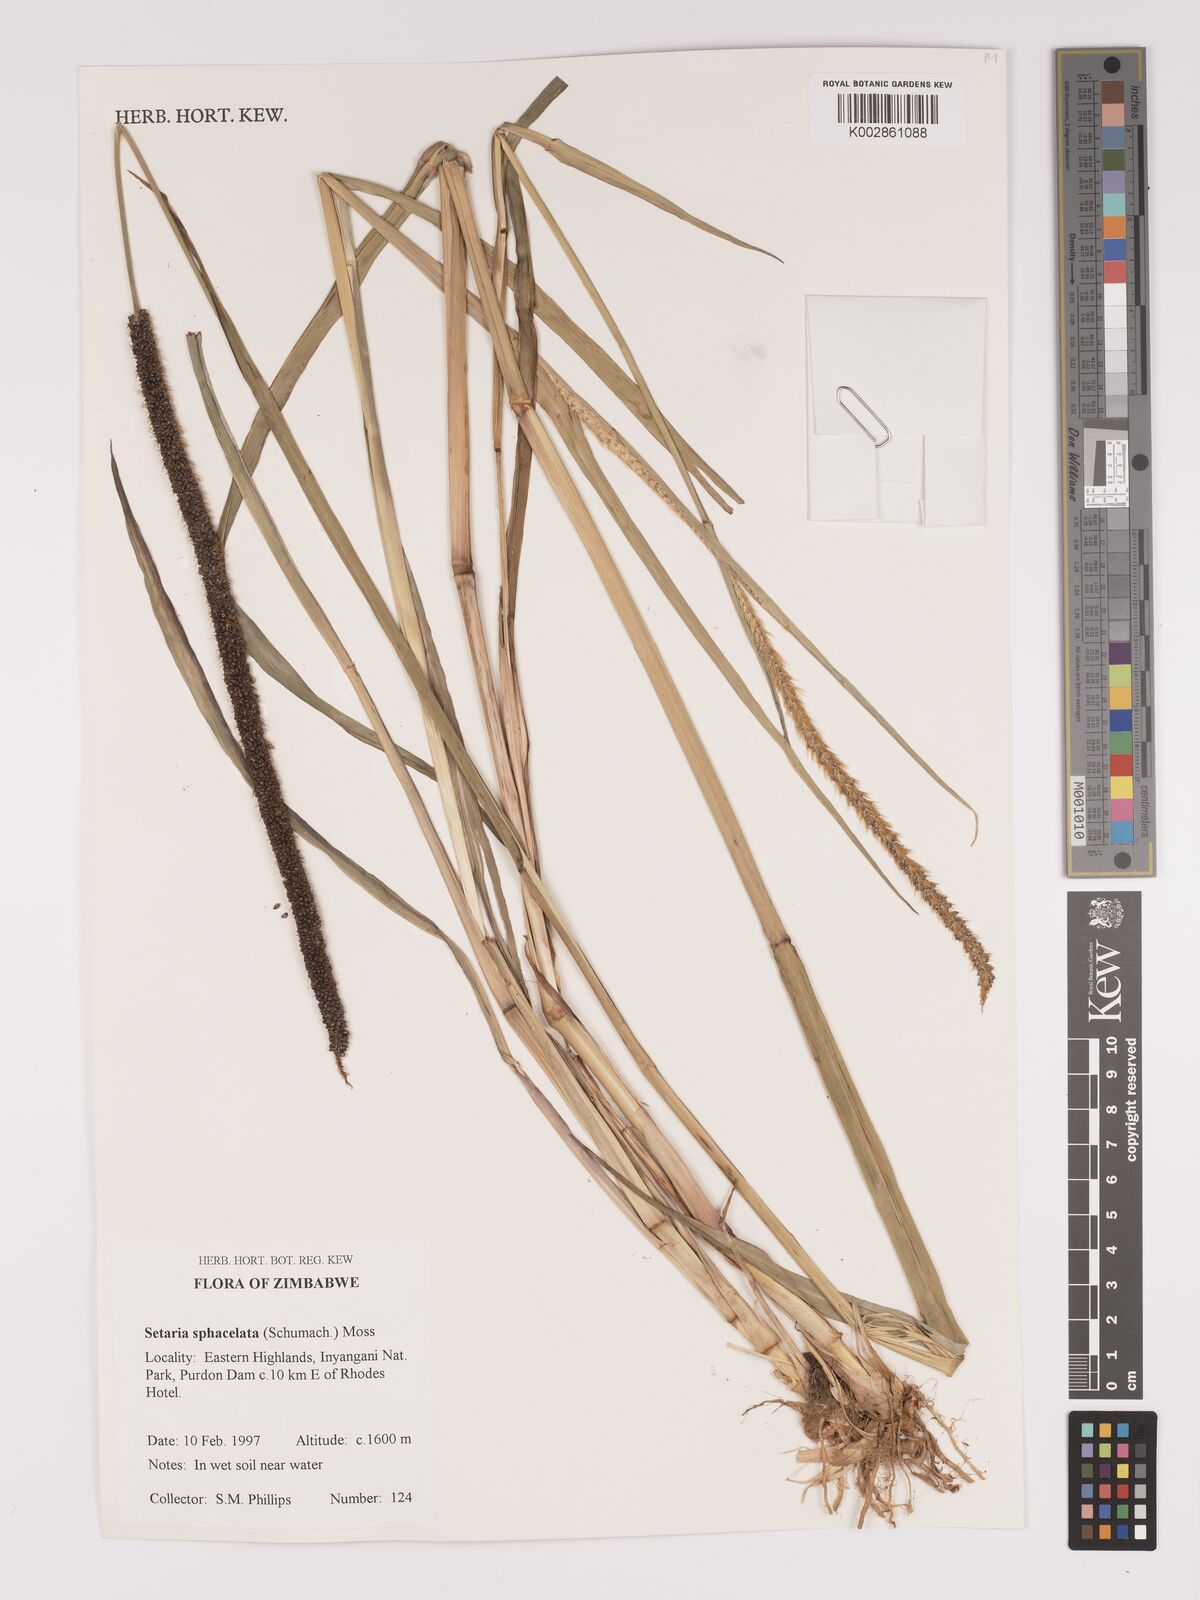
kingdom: Plantae
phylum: Tracheophyta
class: Liliopsida
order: Poales
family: Poaceae
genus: Setaria
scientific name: Setaria sphacelata
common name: African bristlegrass
